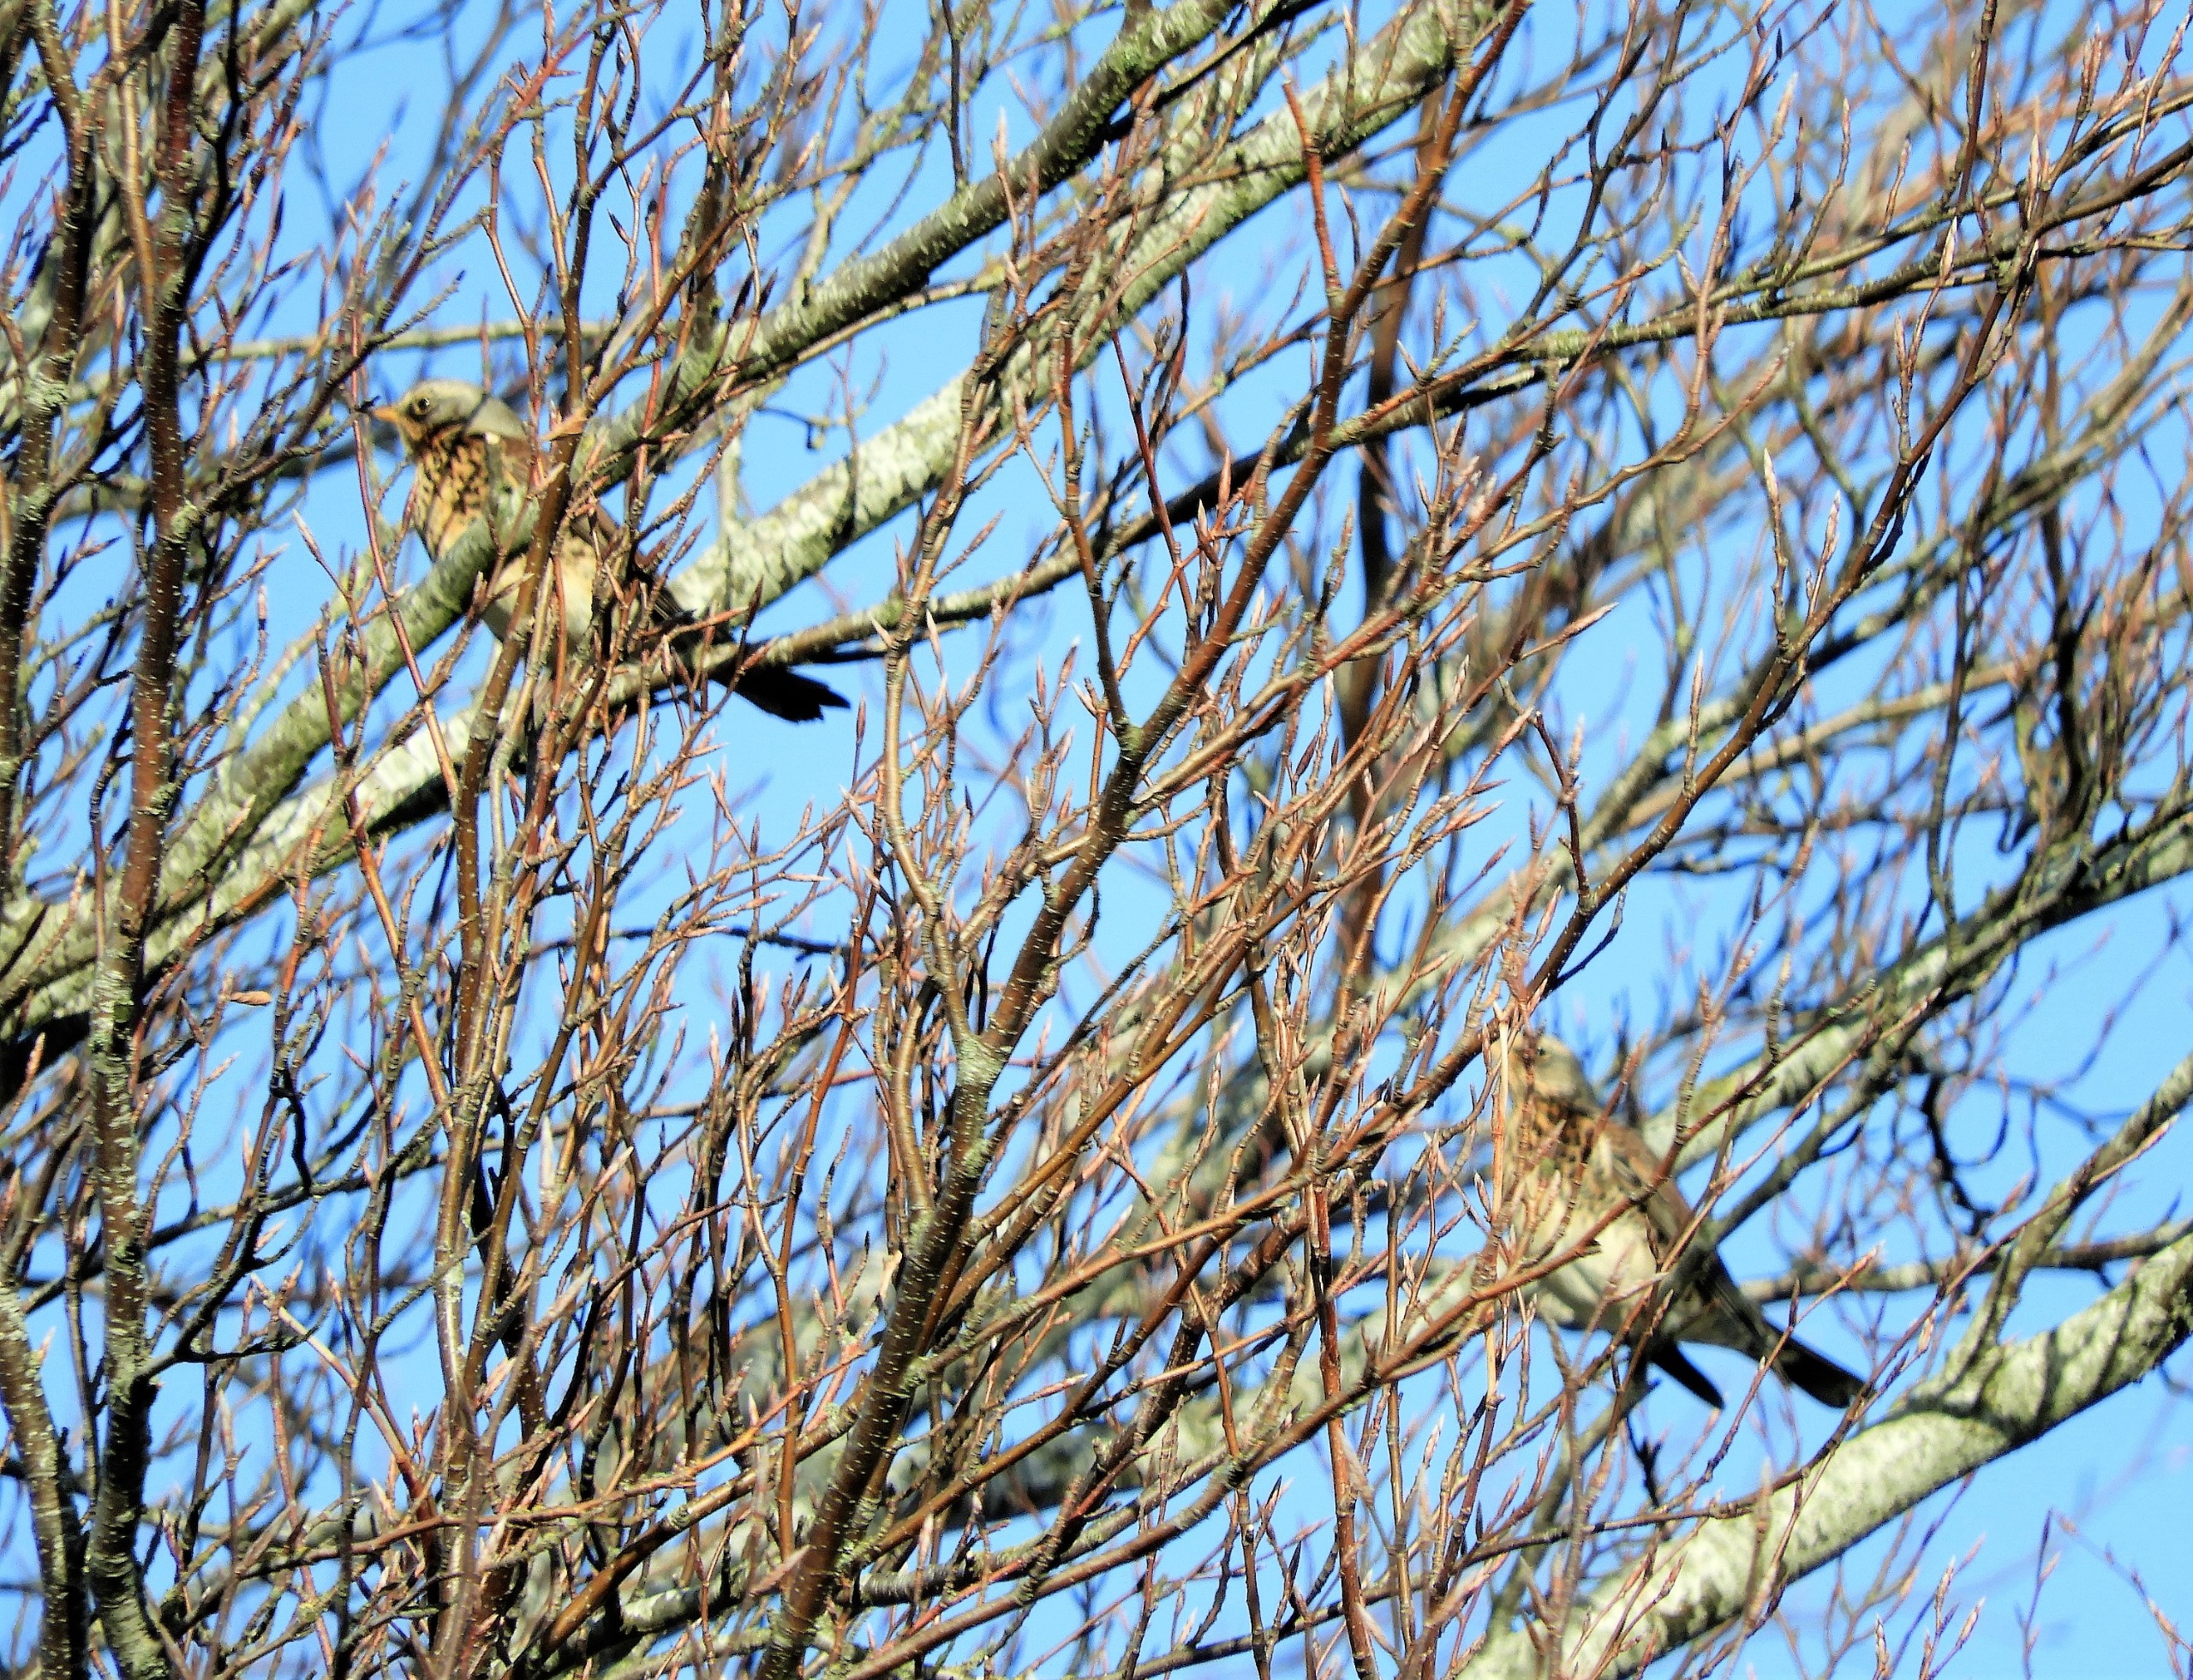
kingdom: Animalia
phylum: Chordata
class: Aves
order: Passeriformes
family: Turdidae
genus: Turdus
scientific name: Turdus pilaris
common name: Sjagger
